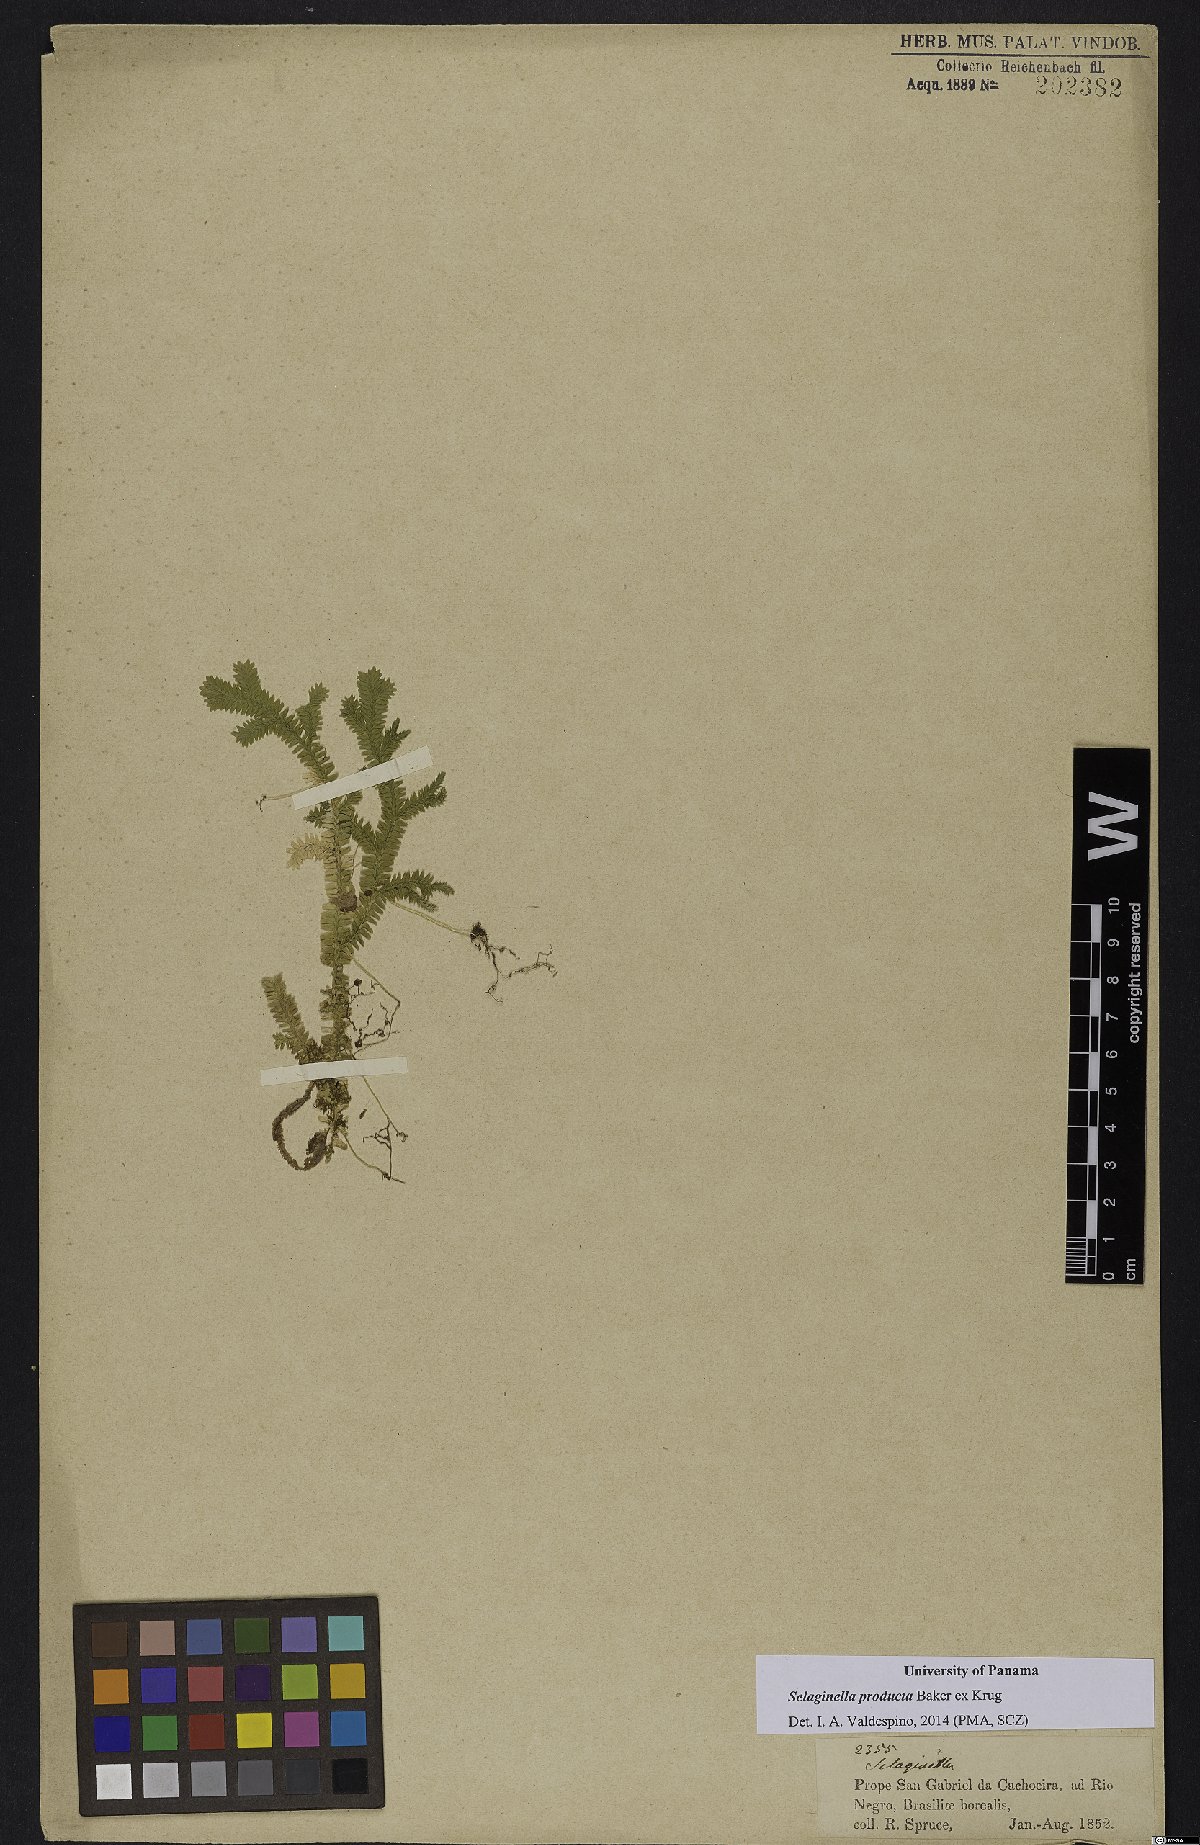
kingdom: Plantae
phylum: Tracheophyta
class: Lycopodiopsida
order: Selaginellales
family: Selaginellaceae
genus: Selaginella
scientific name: Selaginella producta
